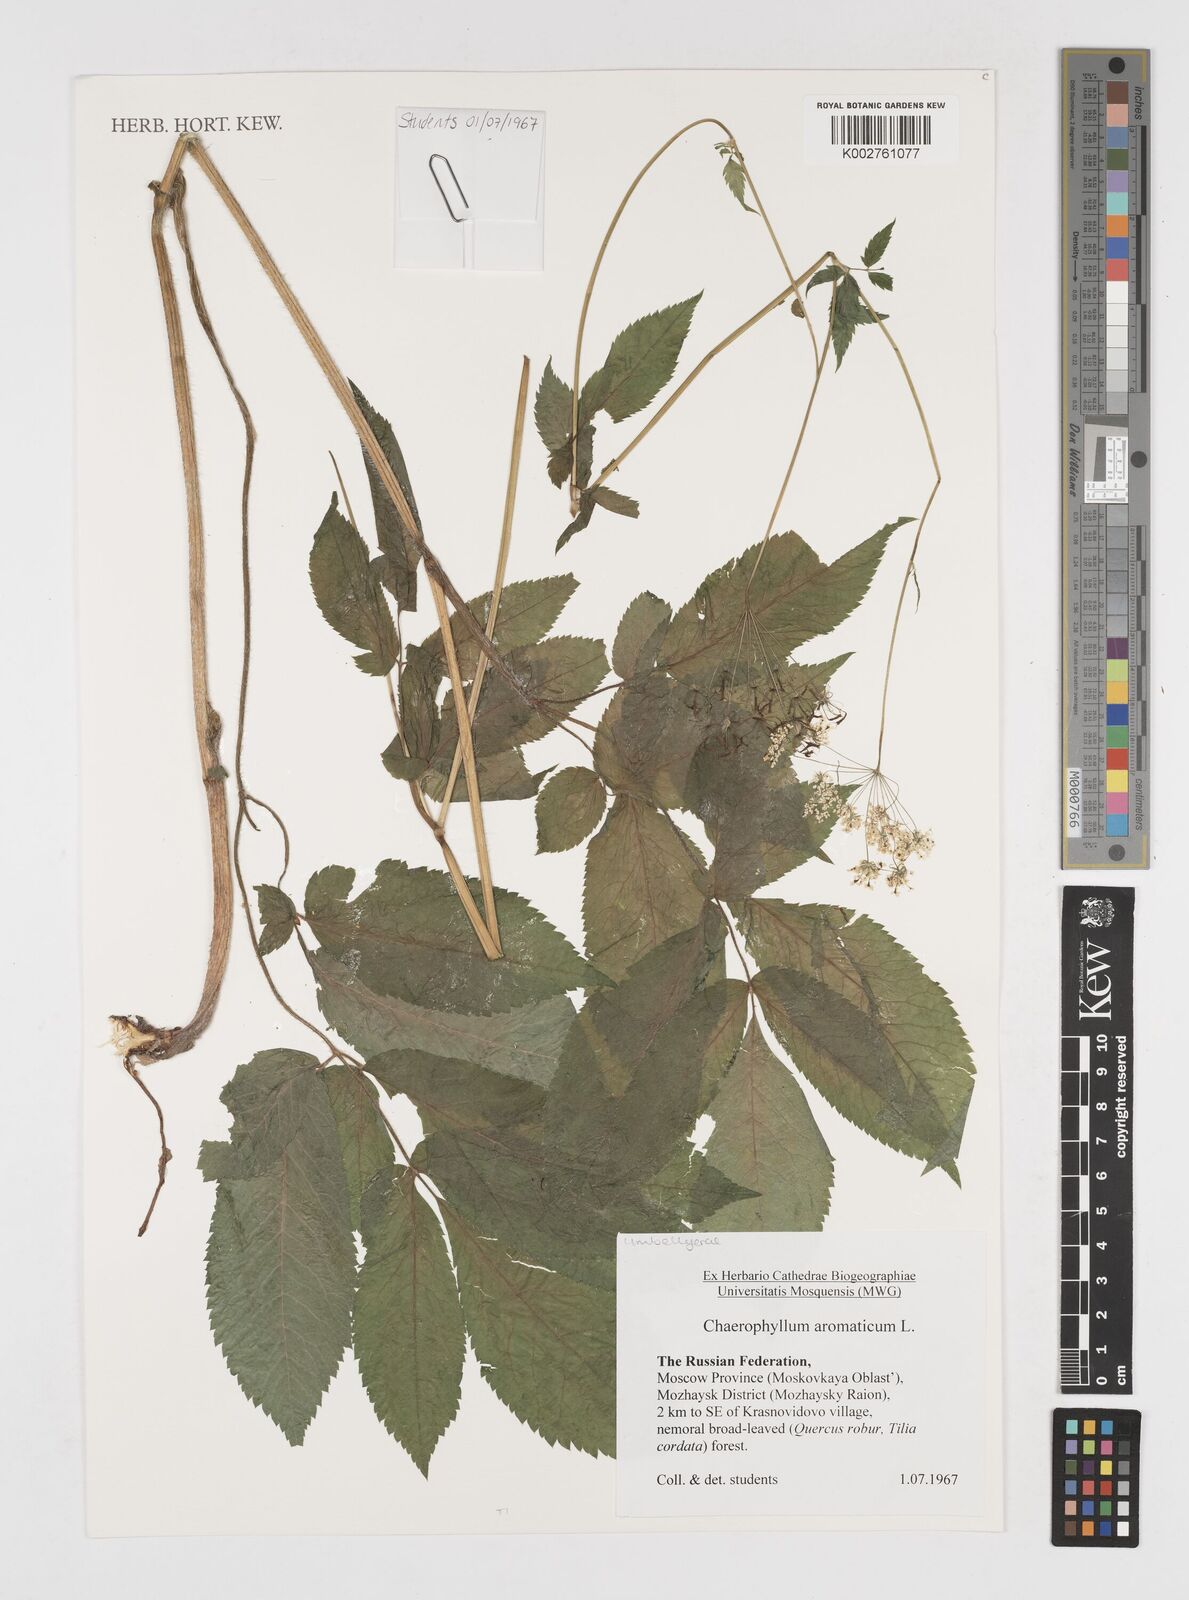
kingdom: Plantae
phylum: Tracheophyta
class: Magnoliopsida
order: Apiales
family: Apiaceae
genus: Chaerophyllum
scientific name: Chaerophyllum aromaticum
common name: Broadleaf chervil
